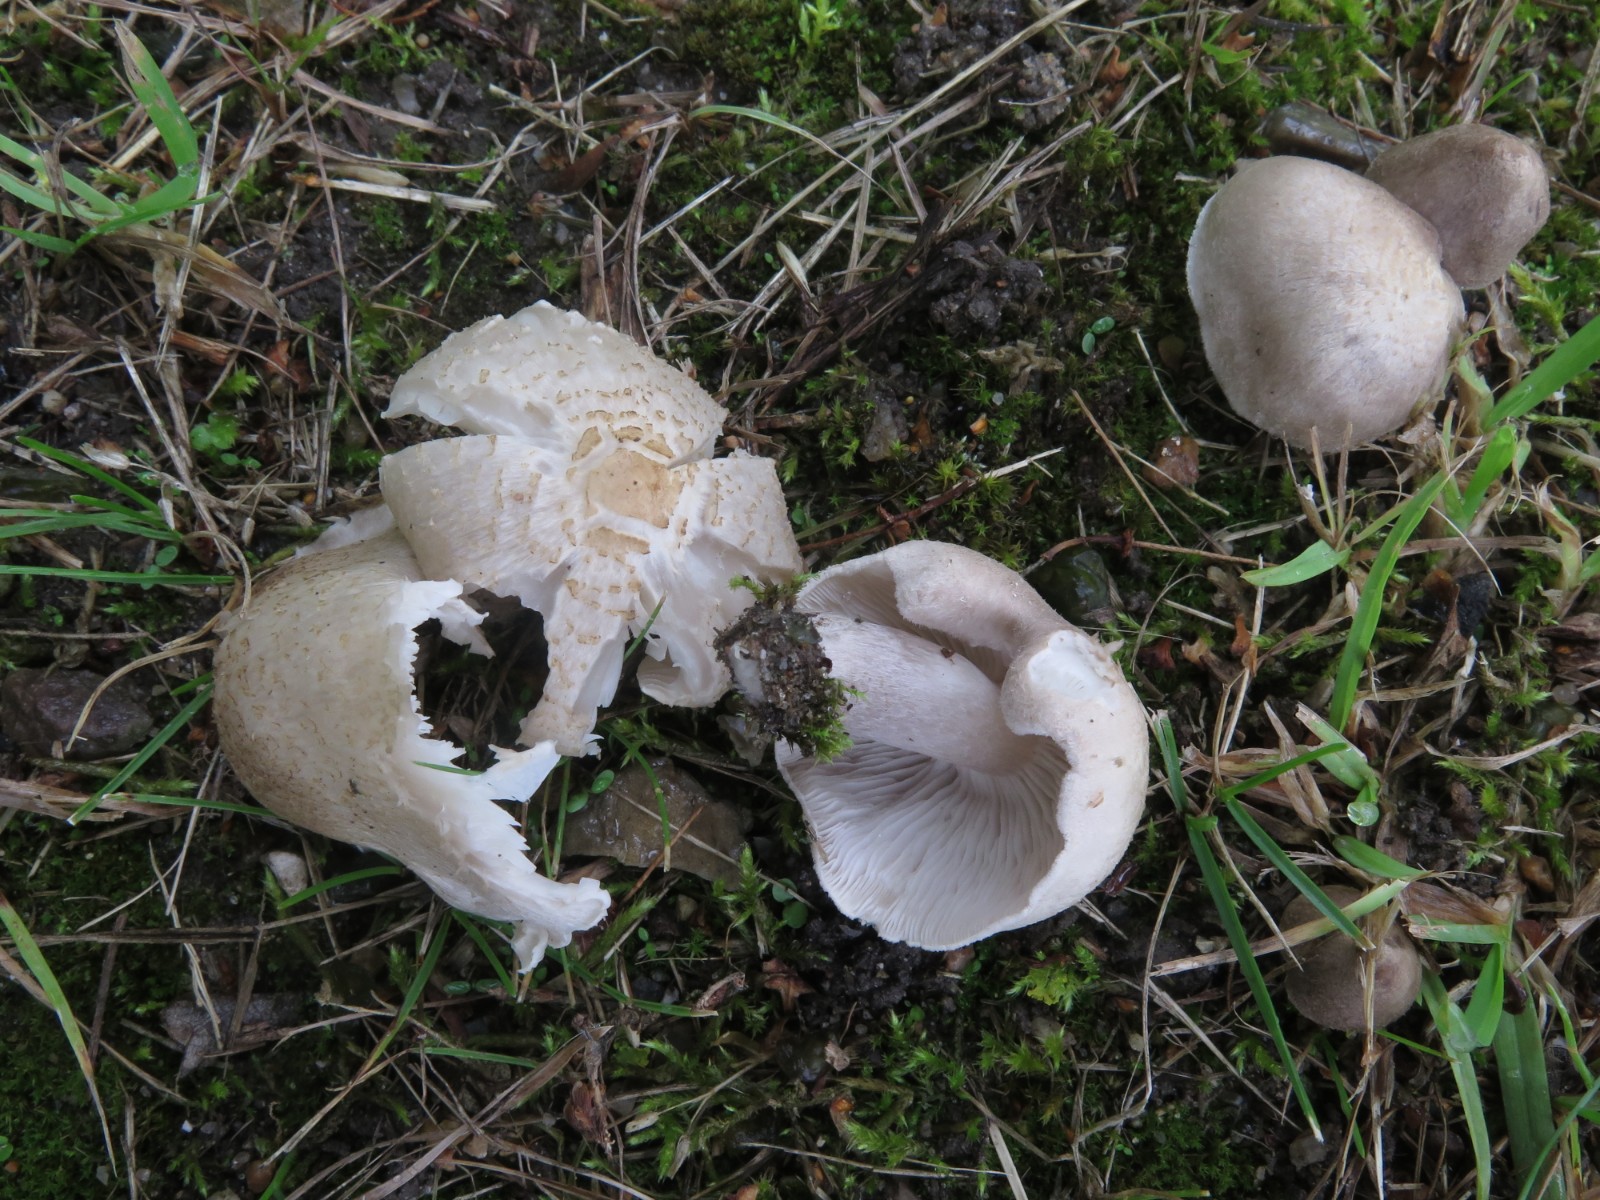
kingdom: Fungi
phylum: Basidiomycota
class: Agaricomycetes
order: Agaricales
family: Tricholomataceae
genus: Tricholoma
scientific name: Tricholoma scalpturatum
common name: gulplettet ridderhat
